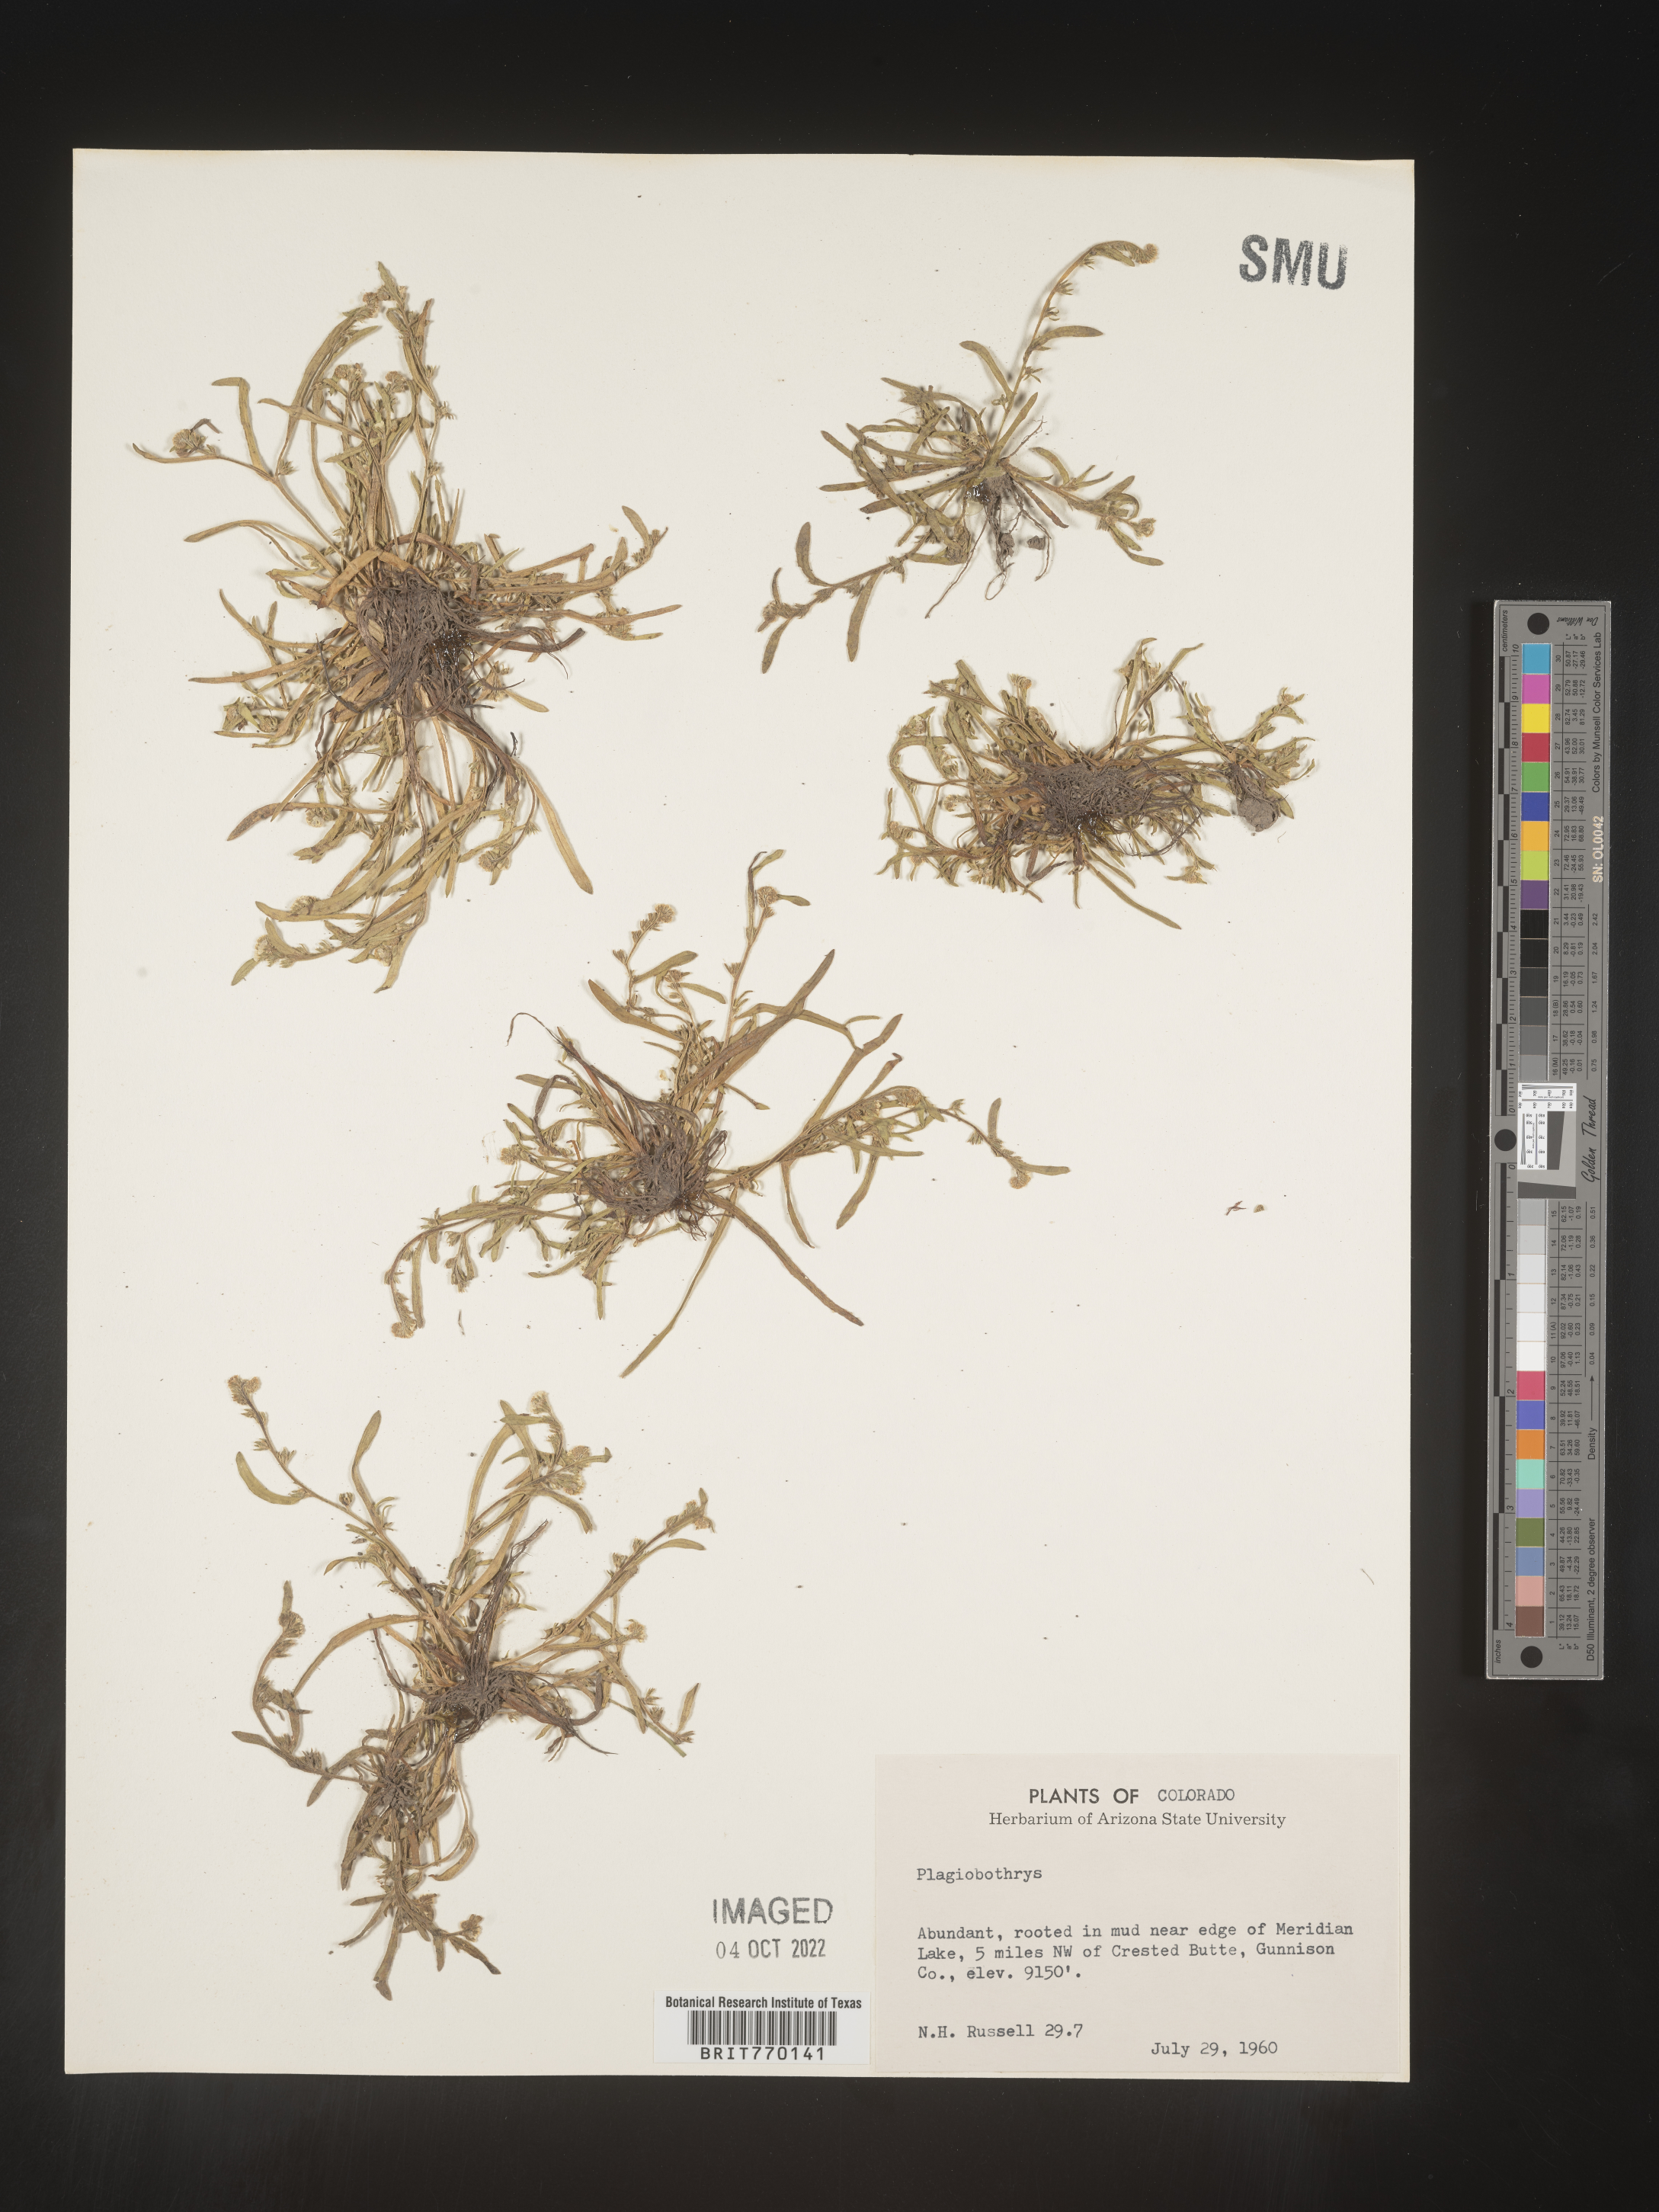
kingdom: Plantae
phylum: Tracheophyta
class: Magnoliopsida
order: Boraginales
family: Boraginaceae
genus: Plagiobothrys
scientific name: Plagiobothrys
